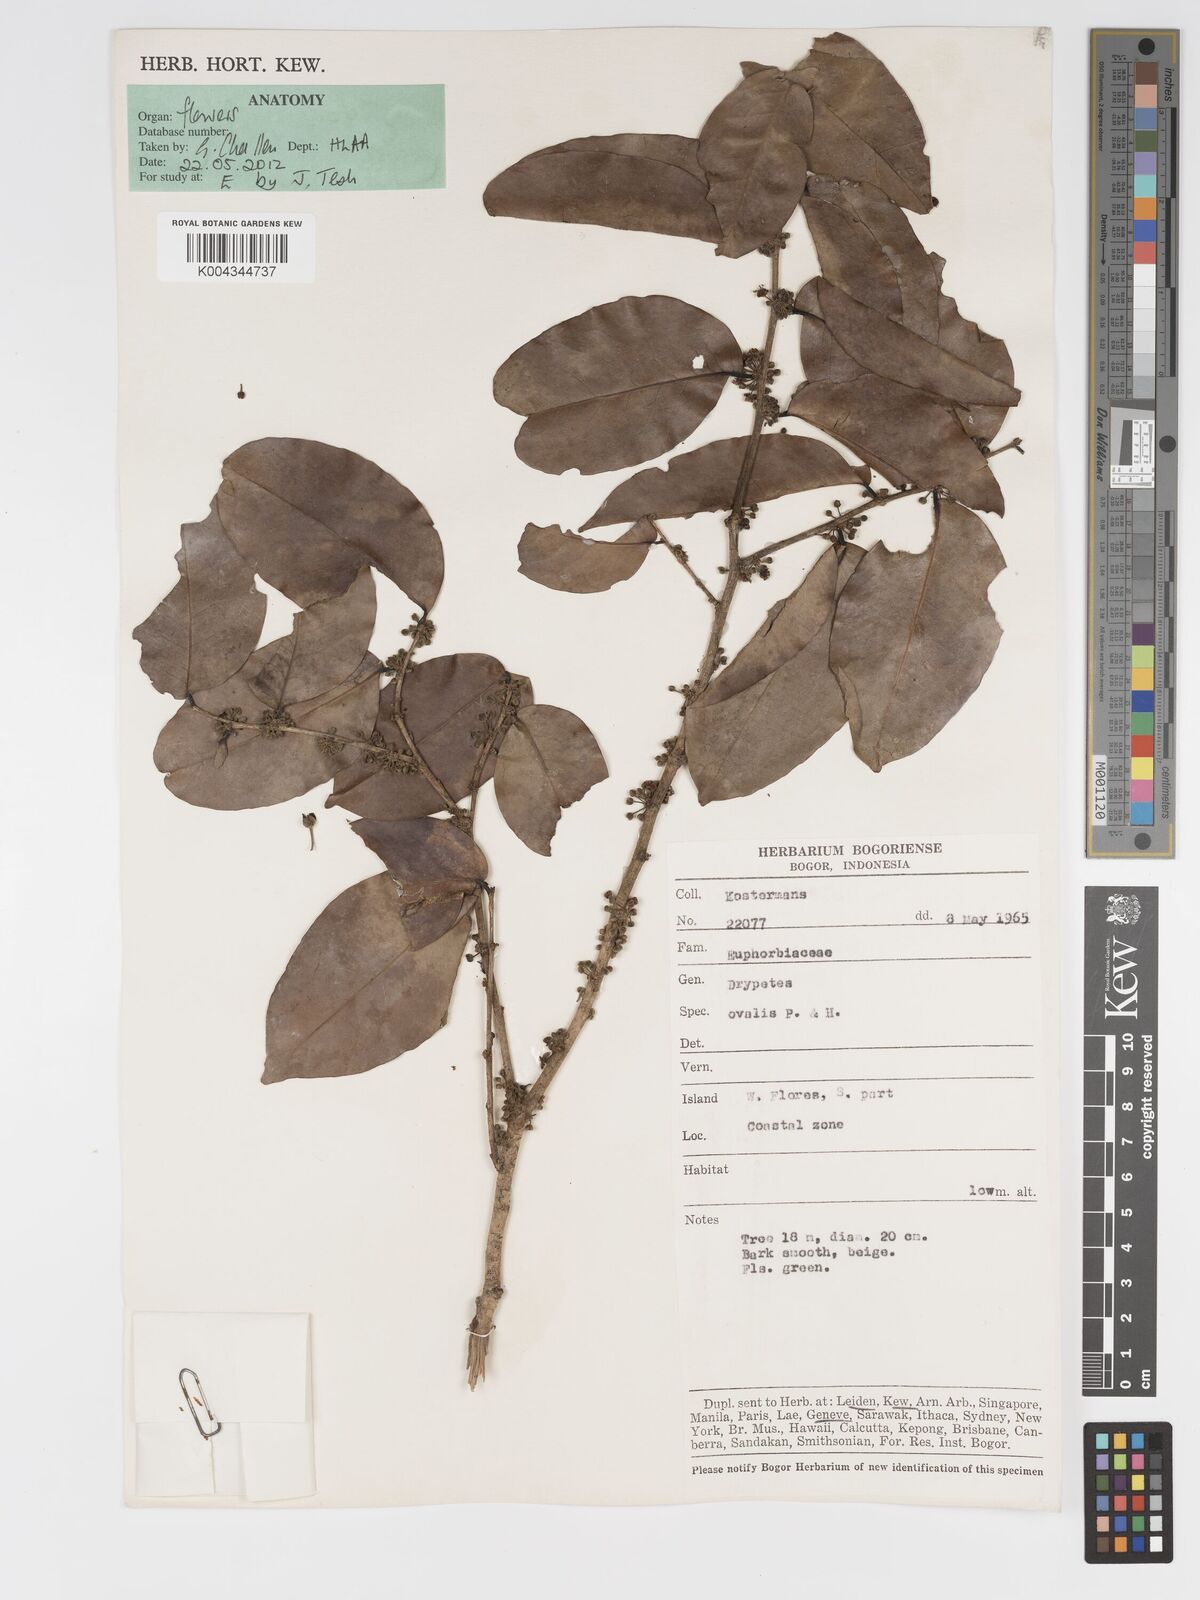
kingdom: Plantae
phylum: Tracheophyta
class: Magnoliopsida
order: Malpighiales
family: Putranjivaceae
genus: Drypetes
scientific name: Drypetes ovalis
